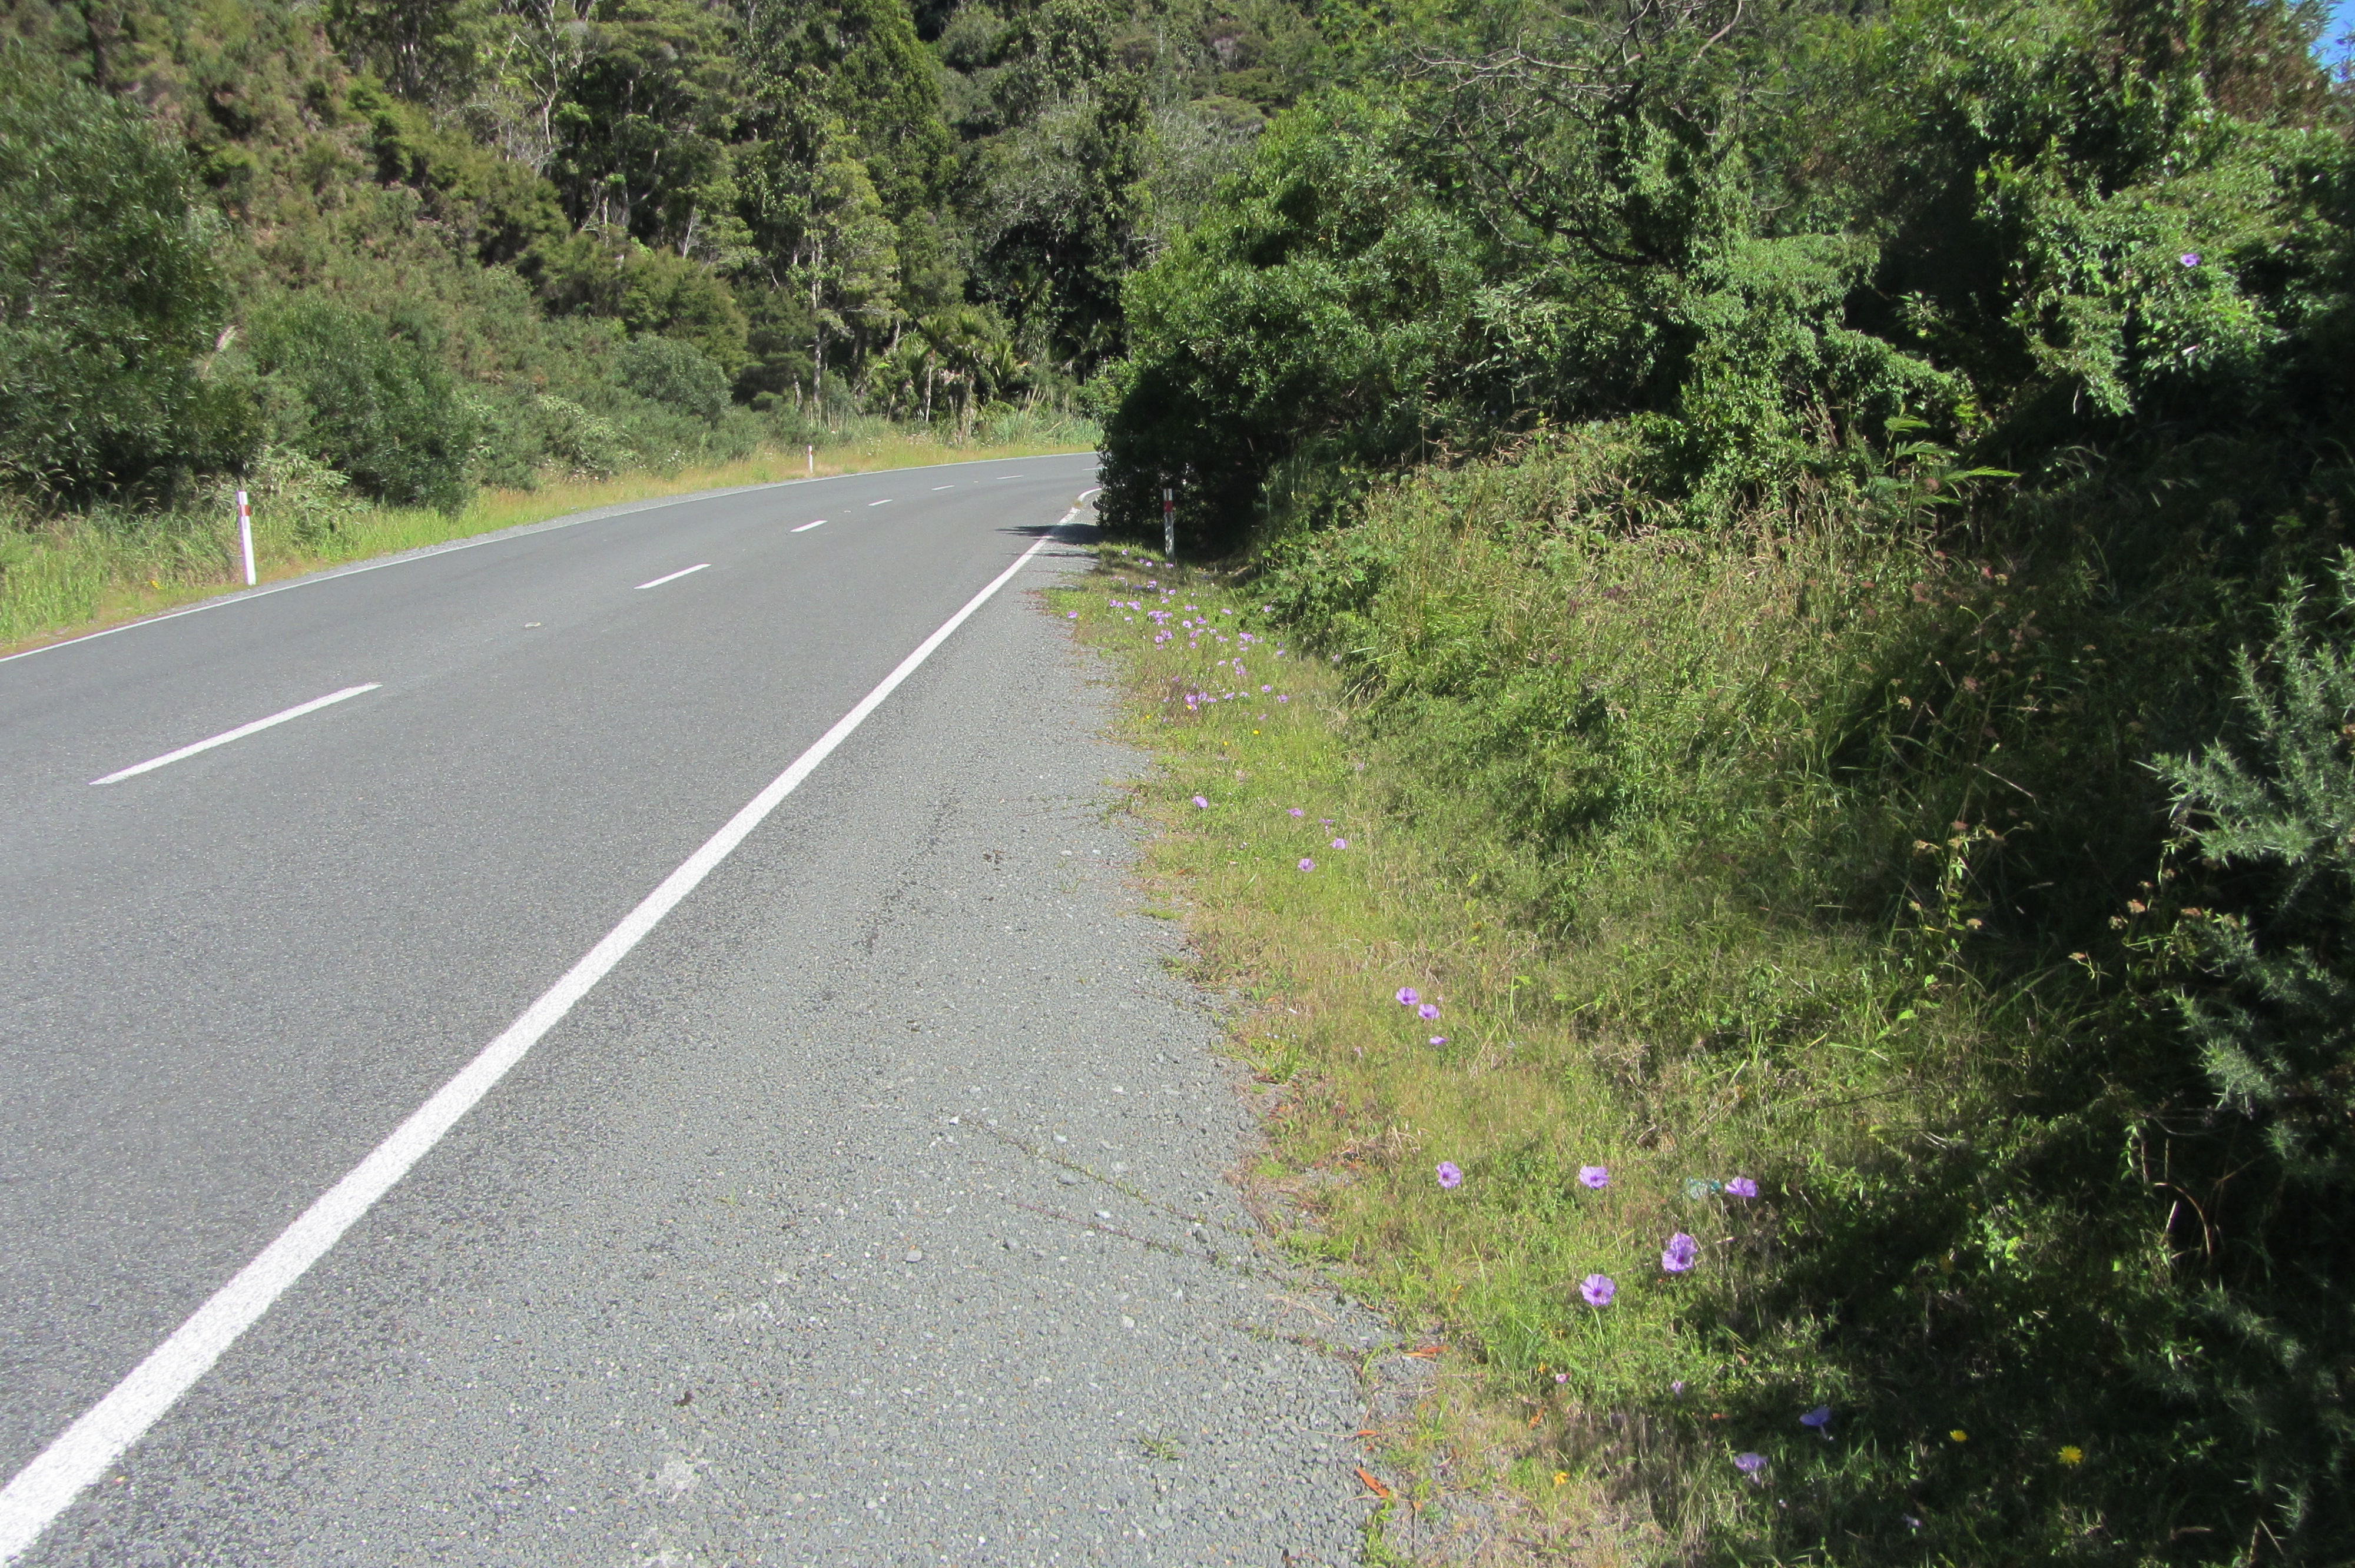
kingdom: Plantae
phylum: Tracheophyta
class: Magnoliopsida
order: Lamiales
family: Lamiaceae
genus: Vitex
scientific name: Vitex agnus-castus
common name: Chasteberry
